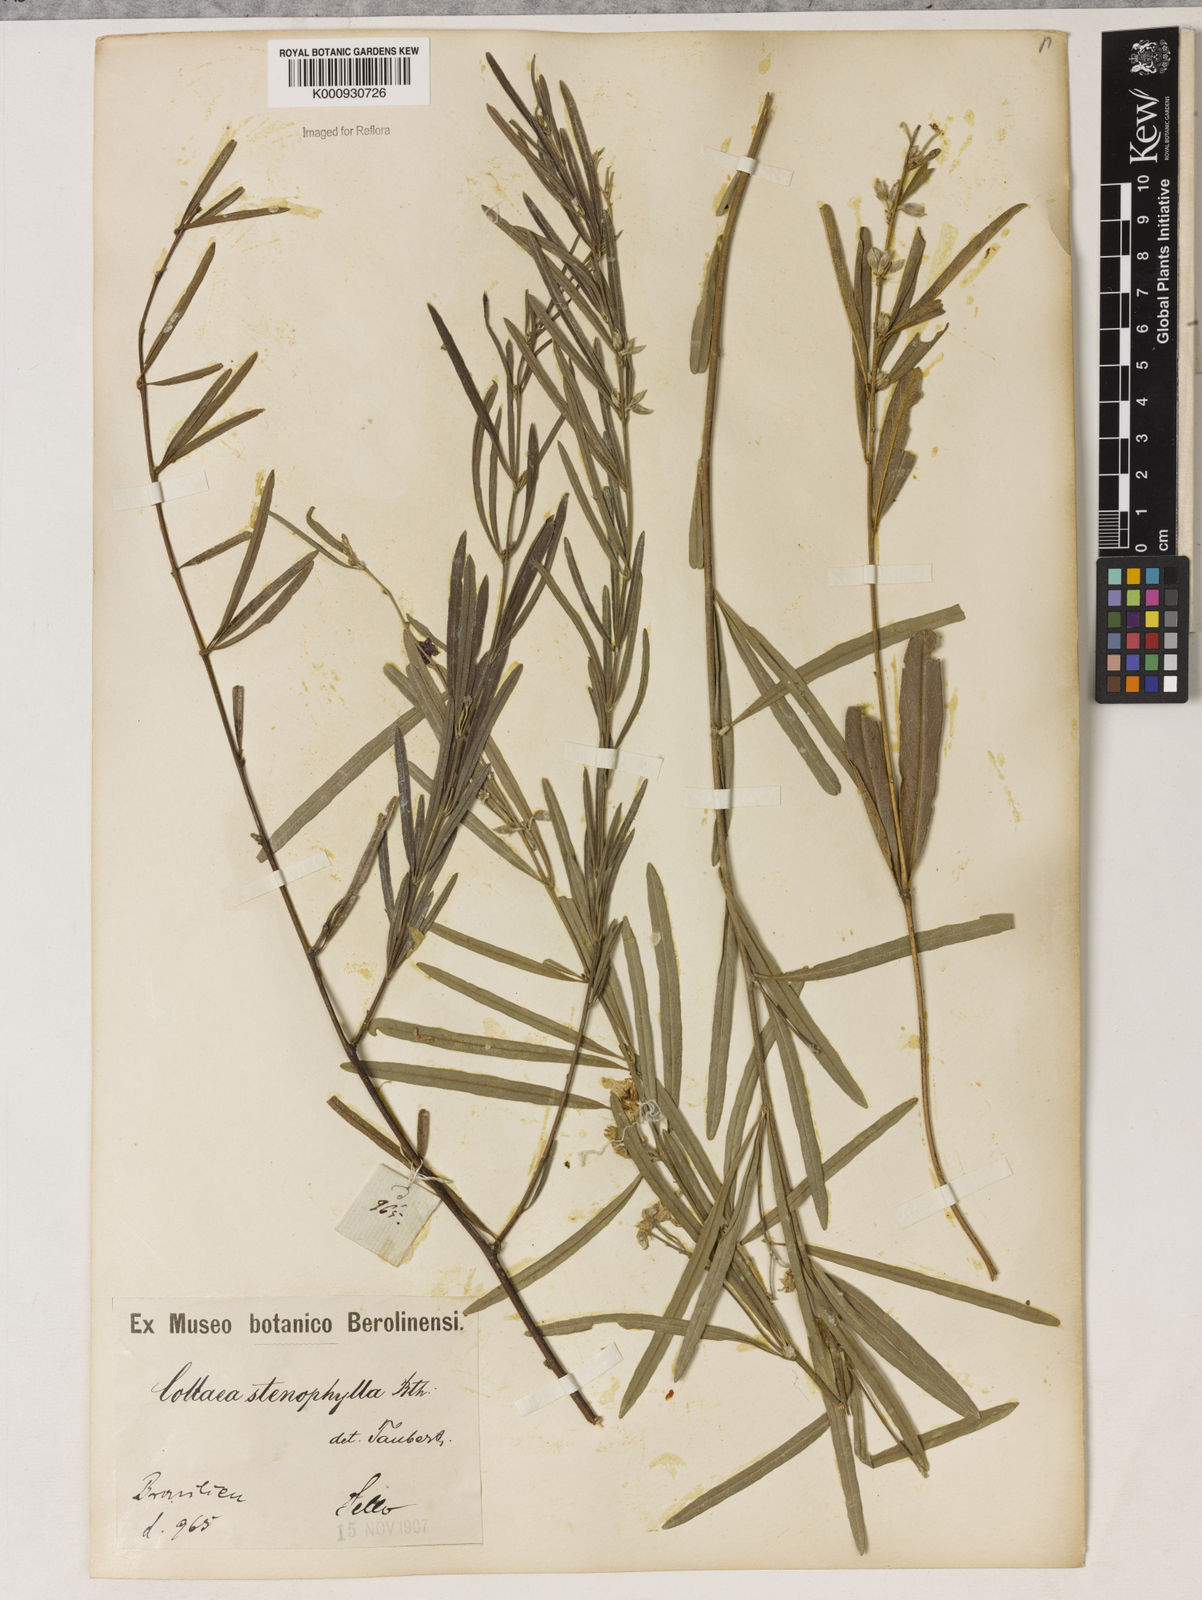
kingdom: Plantae
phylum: Tracheophyta
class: Liliopsida
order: Asparagales
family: Orchidaceae
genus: Pelexia
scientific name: Pelexia
